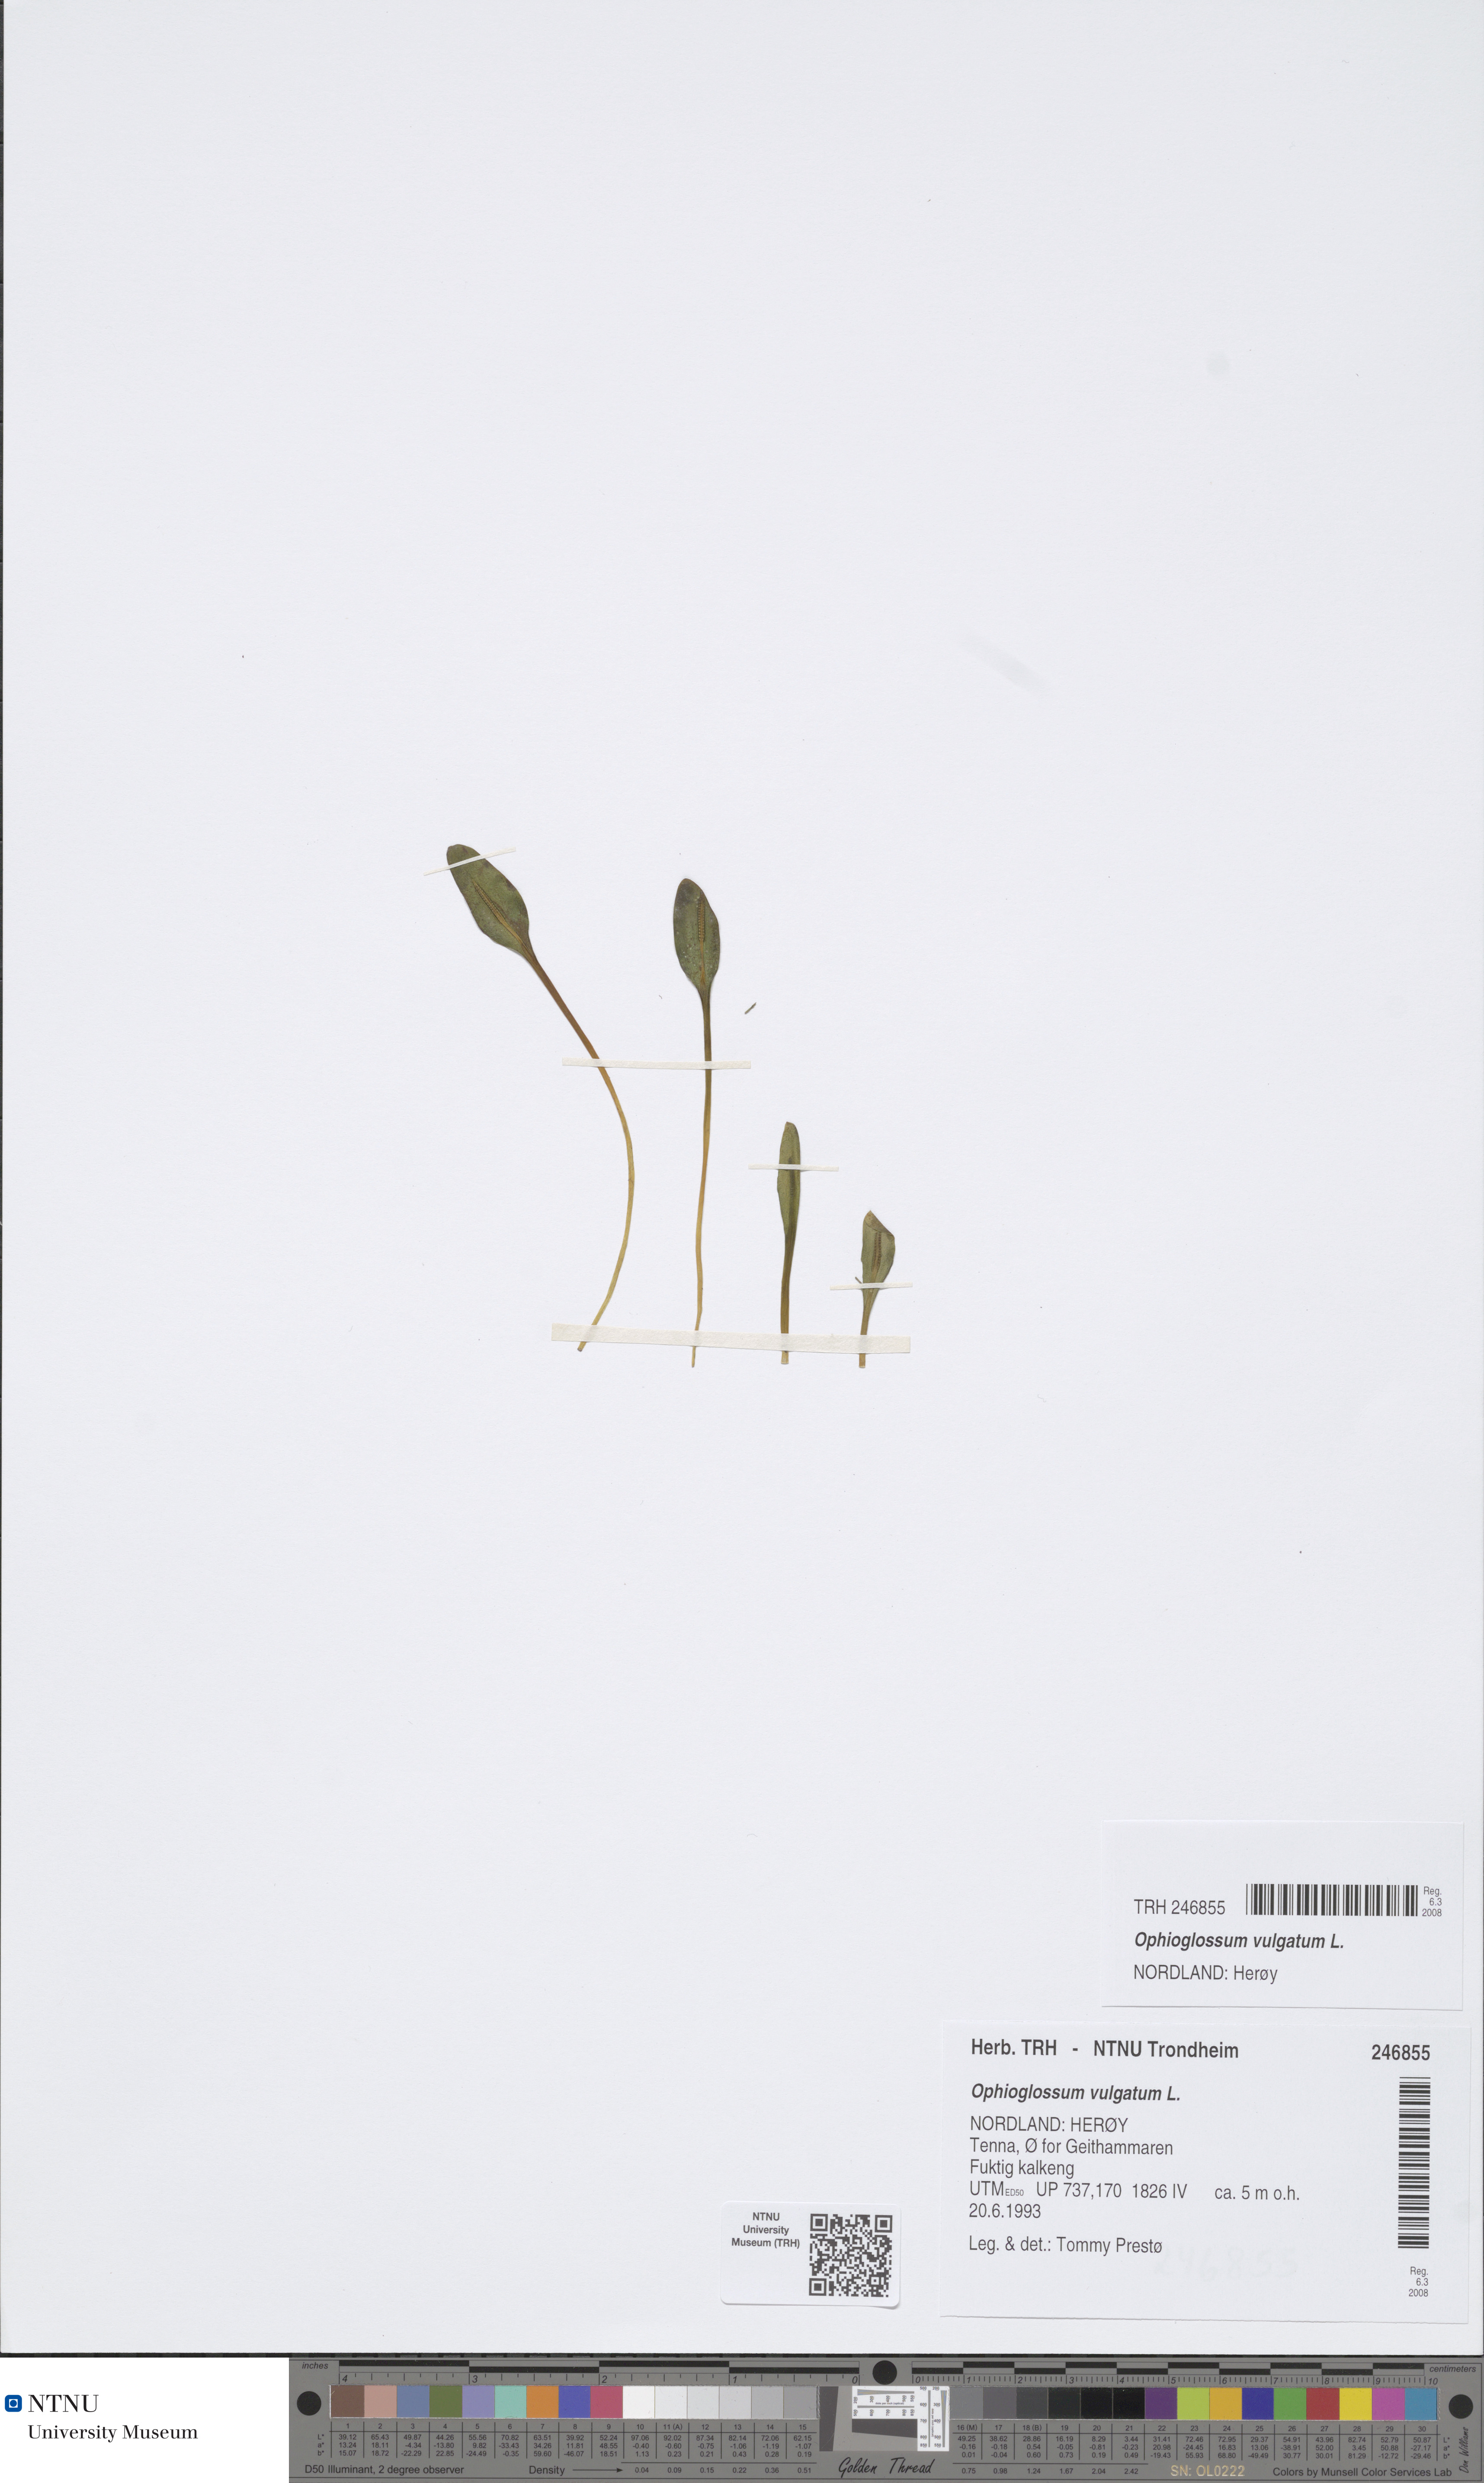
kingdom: Plantae
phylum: Tracheophyta
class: Polypodiopsida
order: Ophioglossales
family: Ophioglossaceae
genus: Ophioglossum
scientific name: Ophioglossum vulgatum
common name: Adder's-tongue
